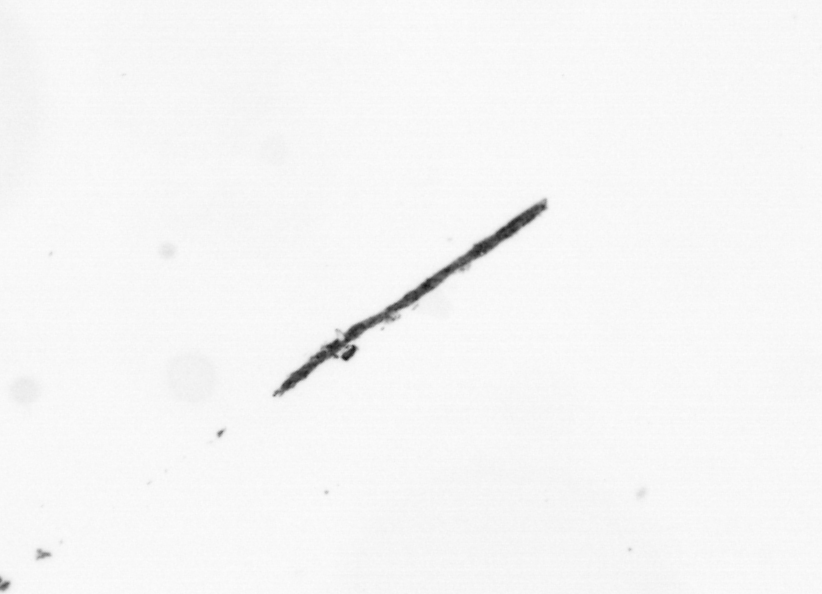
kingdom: Bacteria
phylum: Cyanobacteria
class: Cyanobacteriia
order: Cyanobacteriales
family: Microcoleaceae
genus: Trichodesmium
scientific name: Trichodesmium
